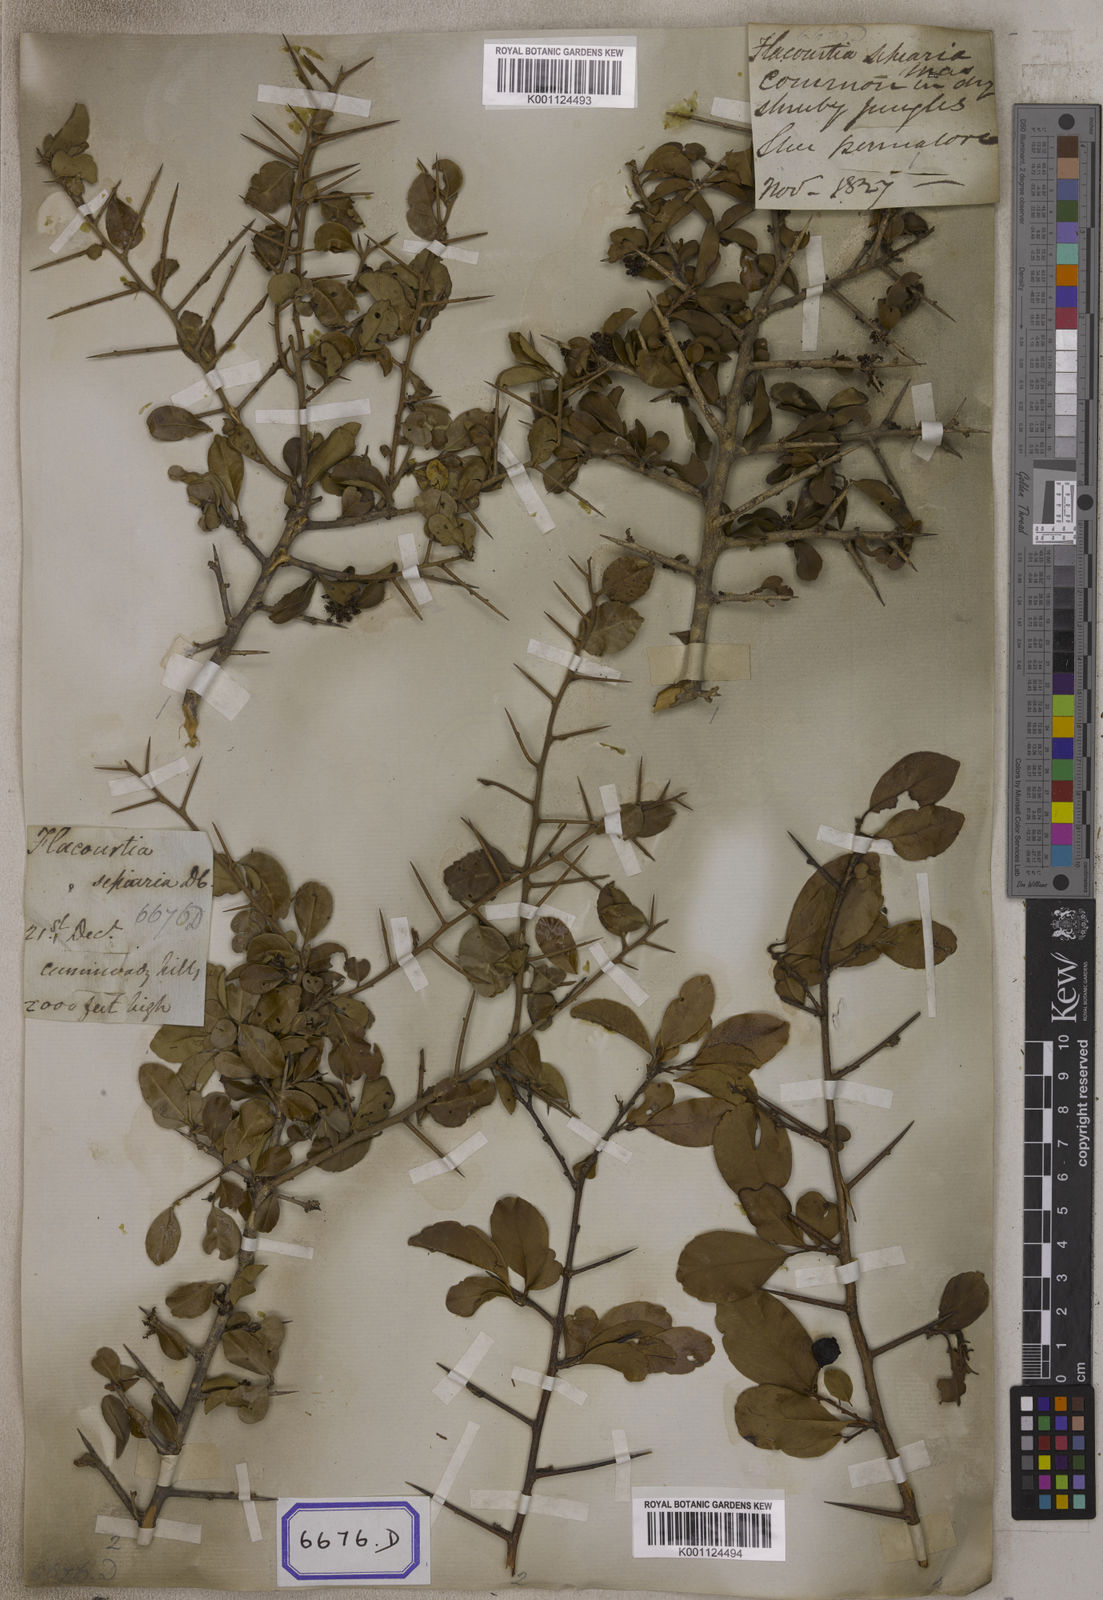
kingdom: Plantae
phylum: Tracheophyta
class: Magnoliopsida
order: Malpighiales
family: Salicaceae
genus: Flacourtia
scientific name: Flacourtia indica
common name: Governor's plum
